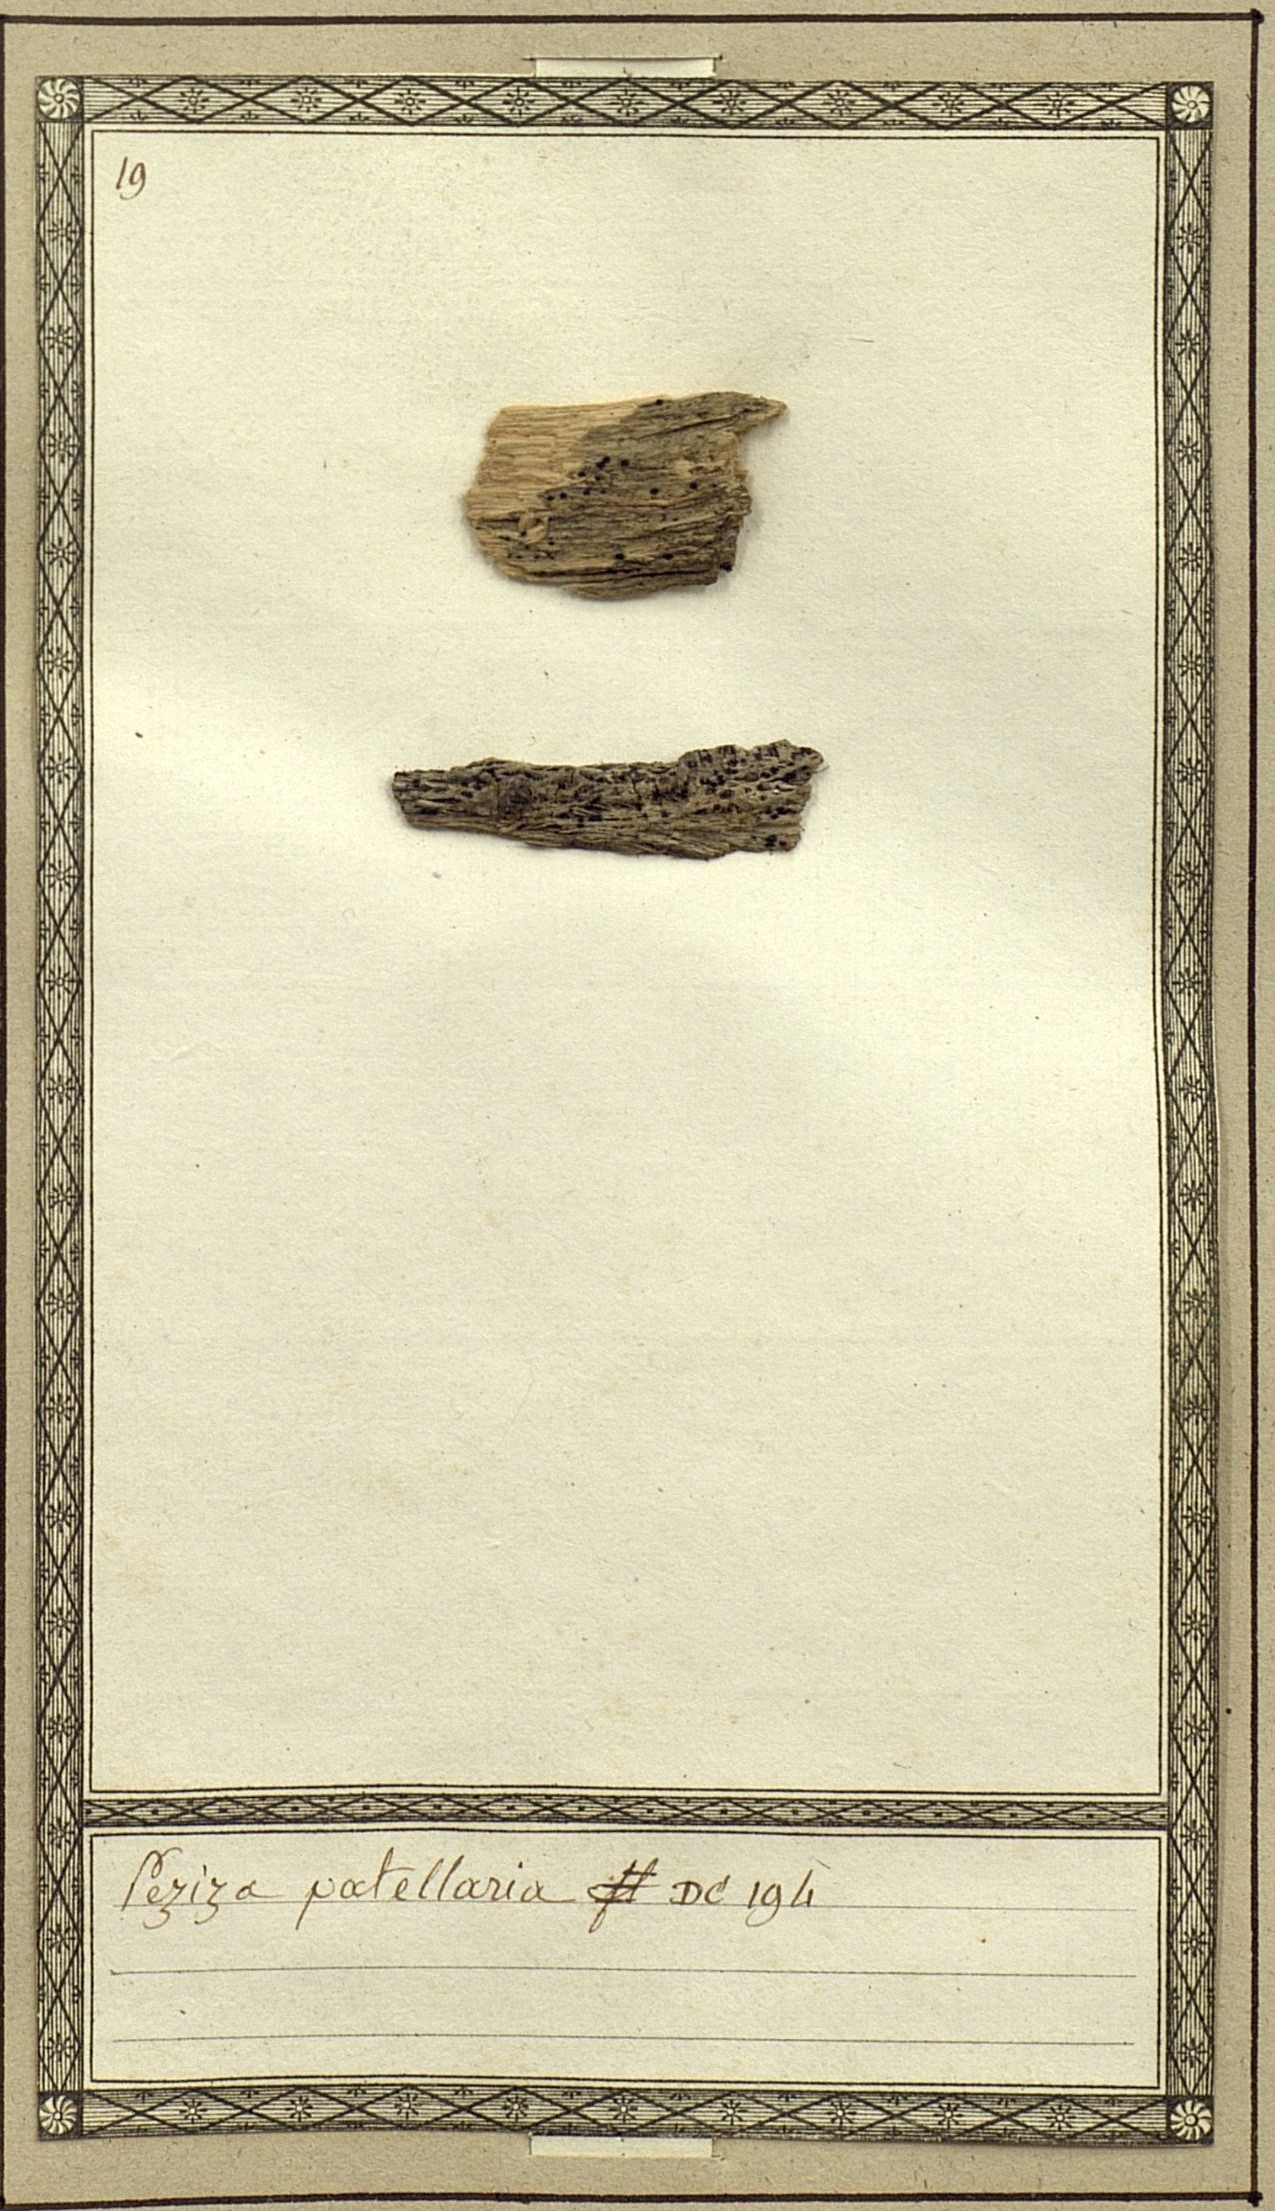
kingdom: Fungi
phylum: Ascomycota
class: Dothideomycetes
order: Patellariales
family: Patellariaceae
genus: Patellaria
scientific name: Patellaria atrata
